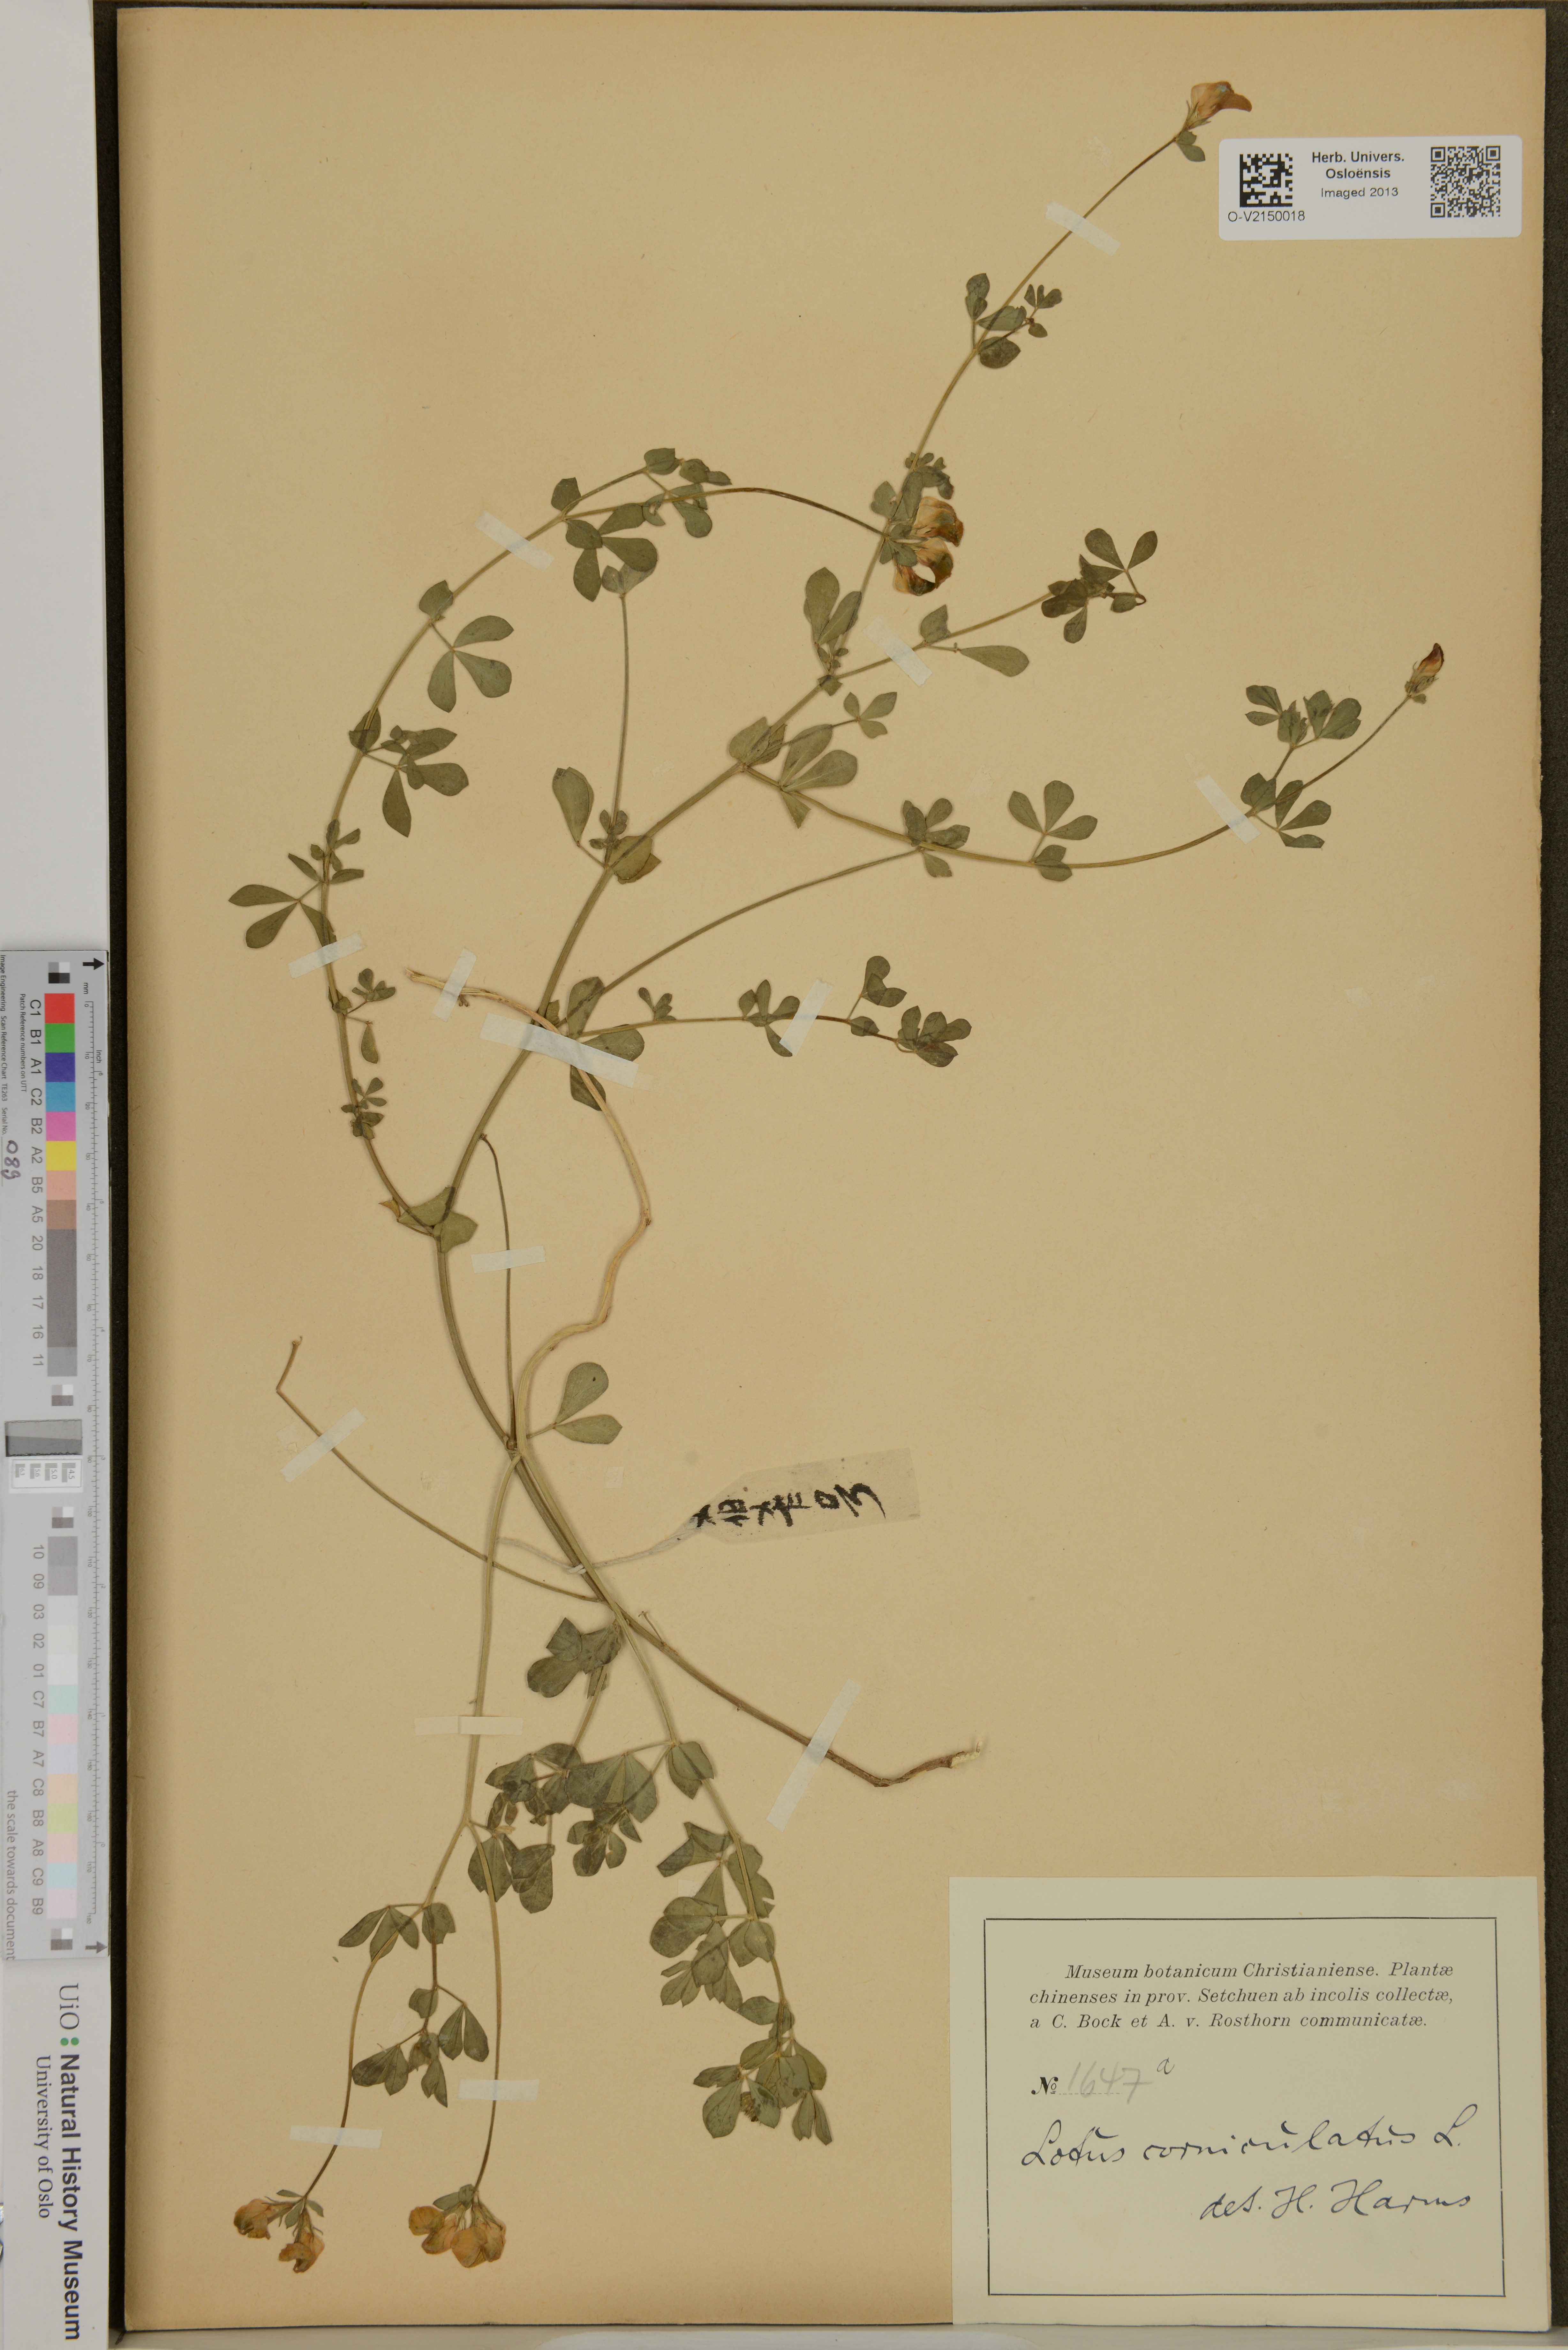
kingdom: Plantae
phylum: Tracheophyta
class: Magnoliopsida
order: Fabales
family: Fabaceae
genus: Lotus
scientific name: Lotus corniculatus
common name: Common bird's-foot-trefoil
